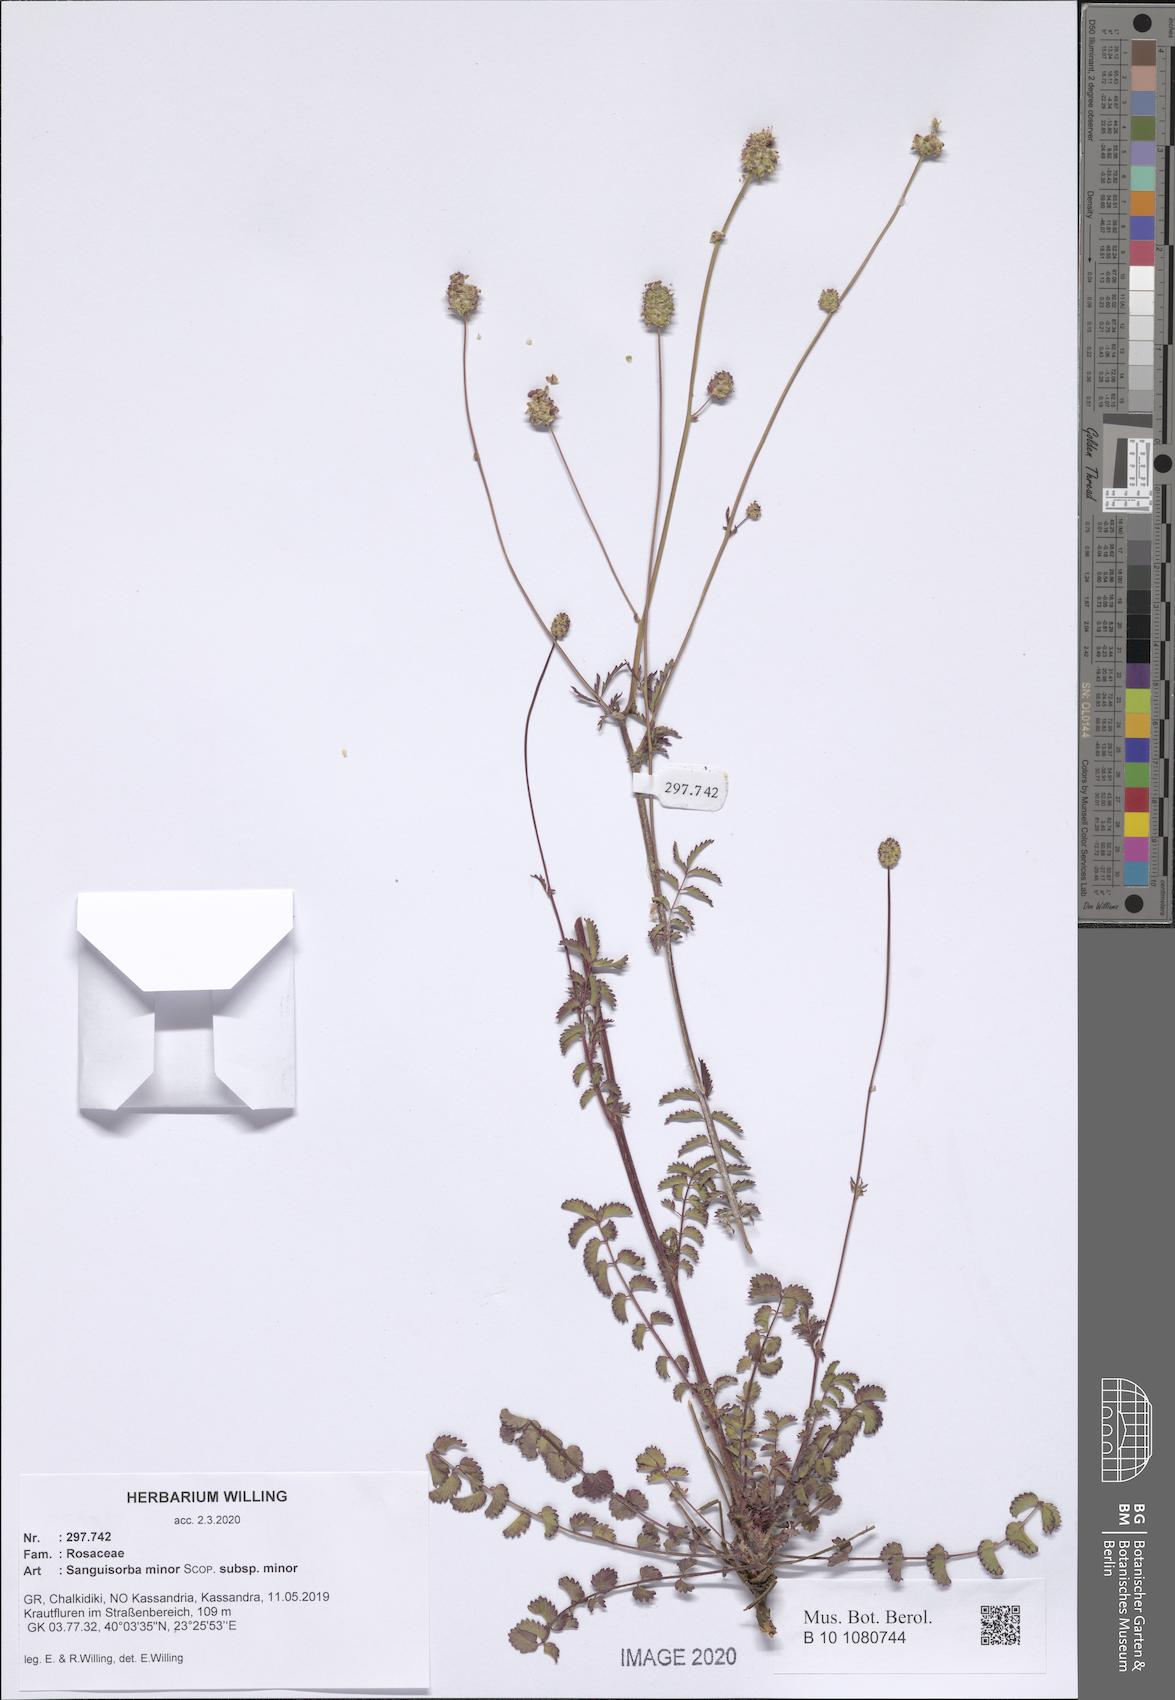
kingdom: Plantae
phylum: Tracheophyta
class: Magnoliopsida
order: Rosales
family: Rosaceae
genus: Poterium
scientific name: Poterium sanguisorba
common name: Salad burnet
